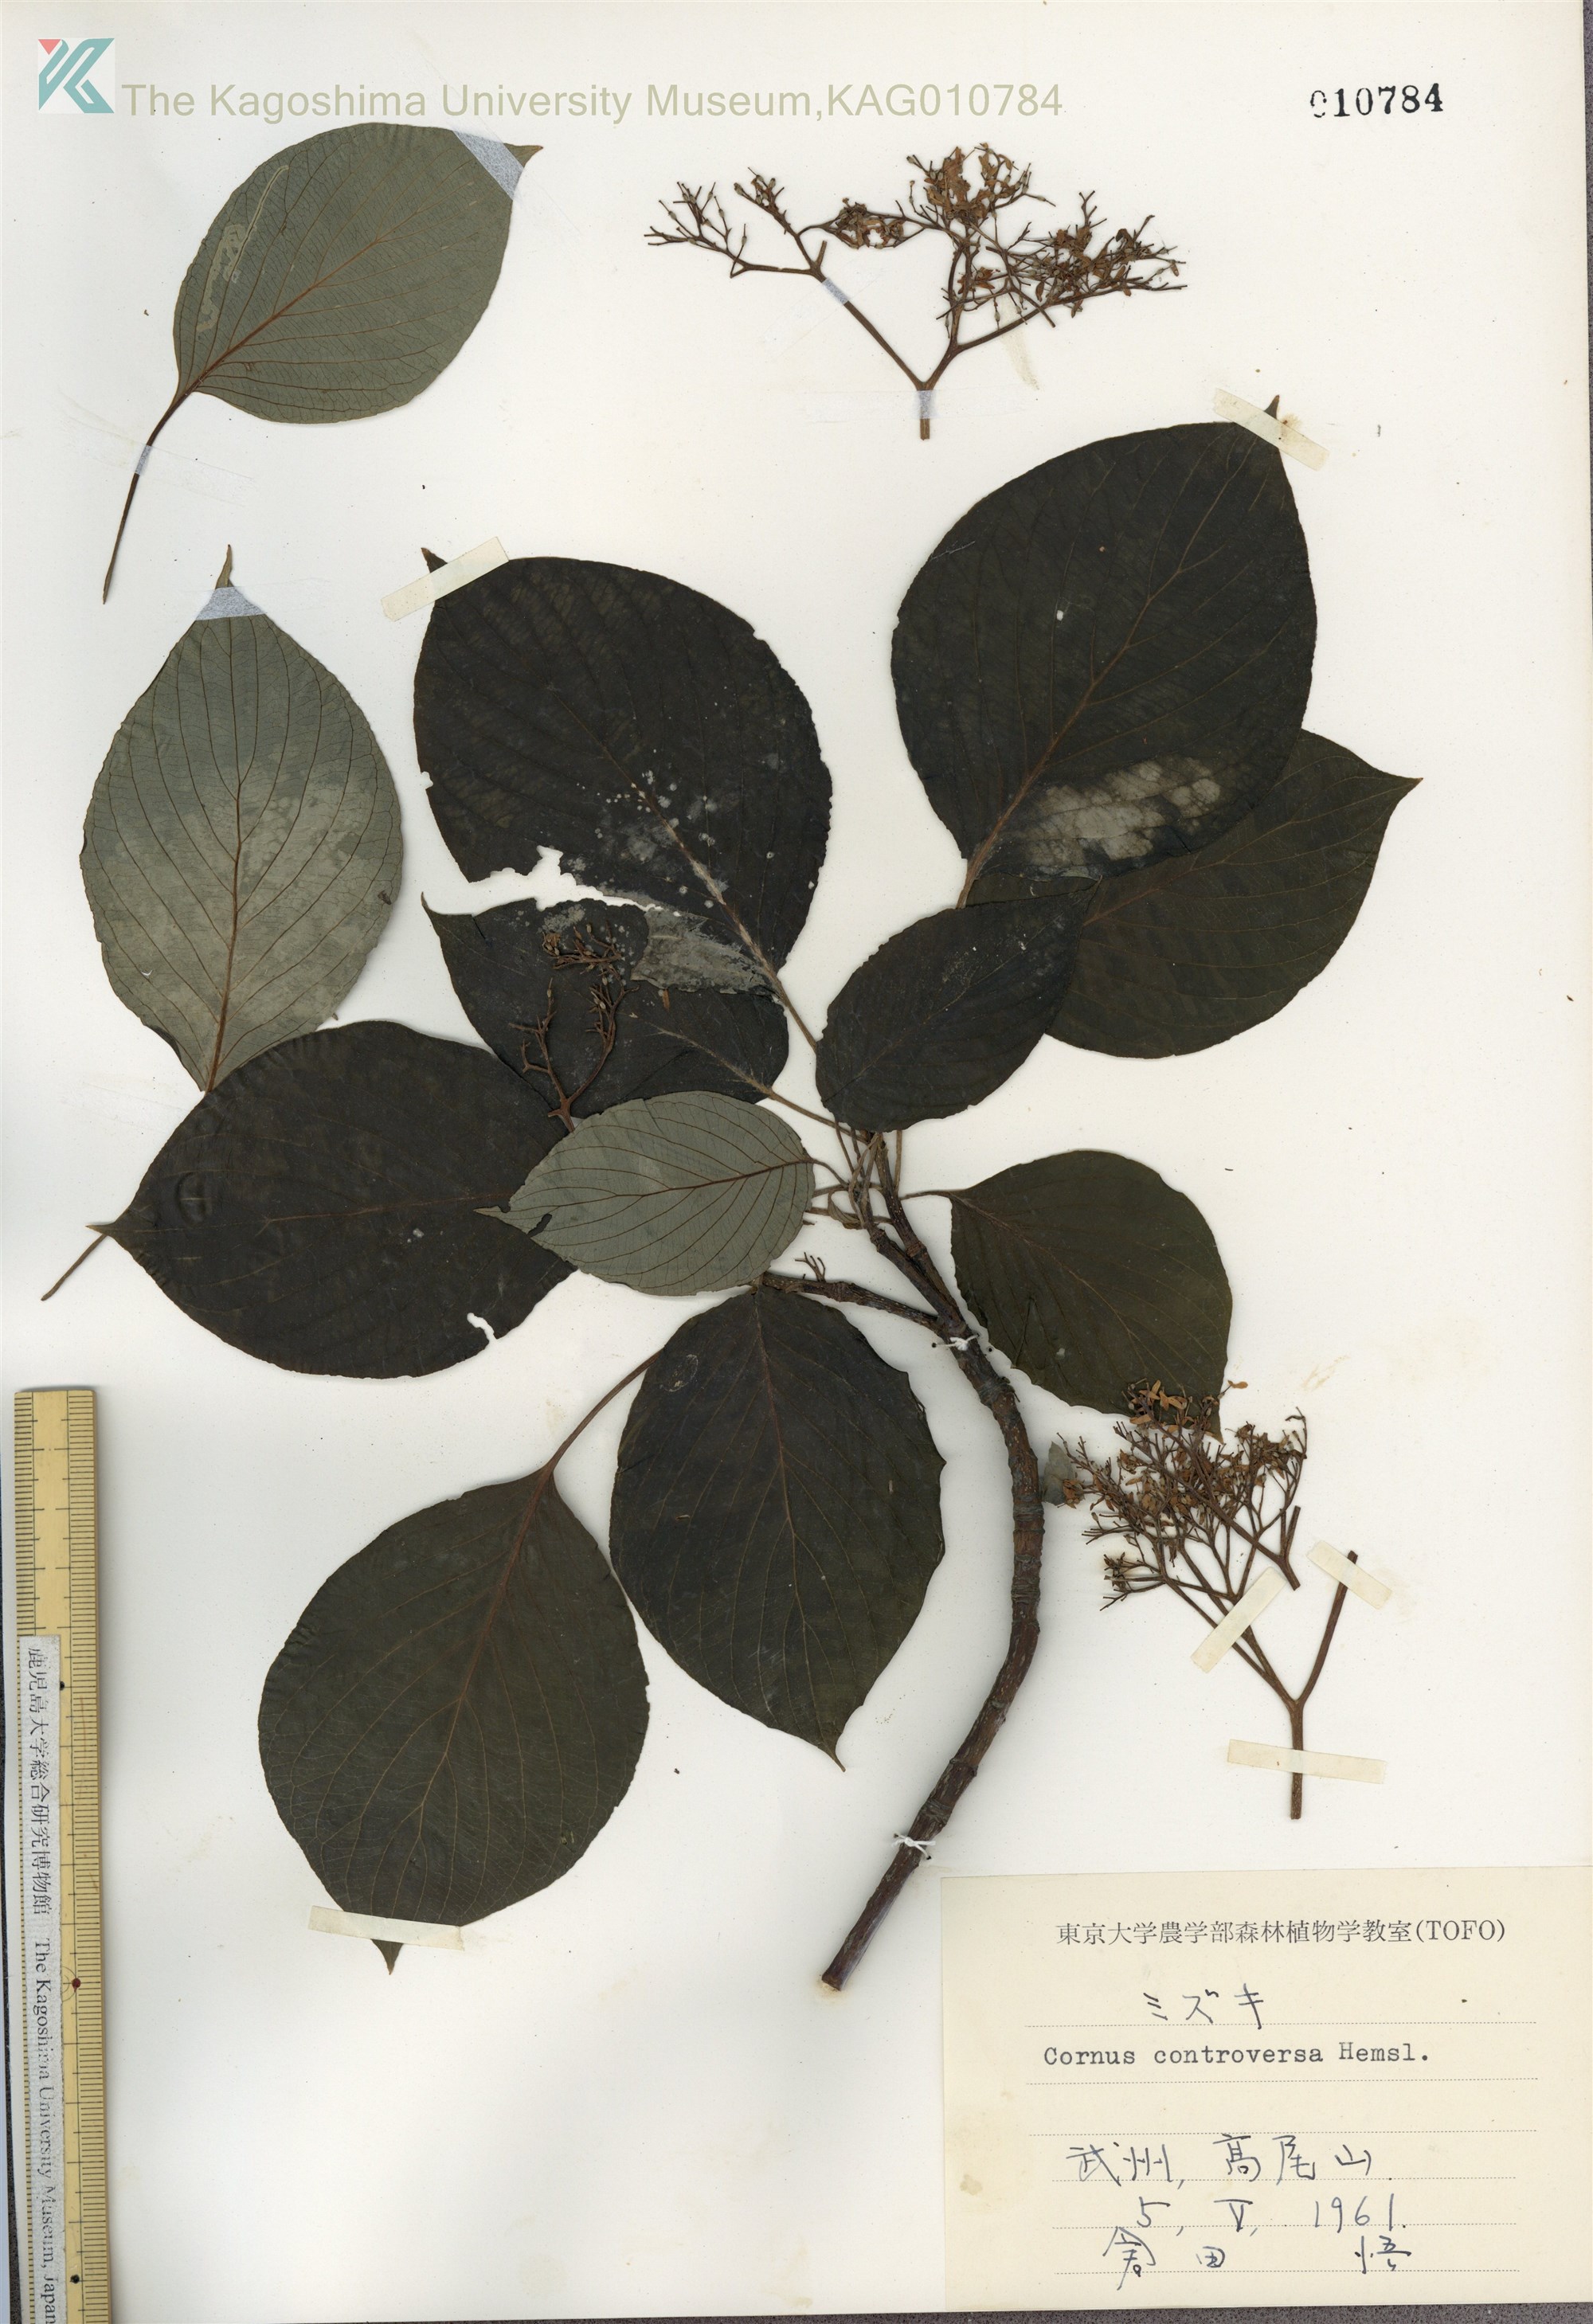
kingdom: Plantae
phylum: Tracheophyta
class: Magnoliopsida
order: Cornales
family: Cornaceae
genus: Cornus
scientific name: Cornus controversa
